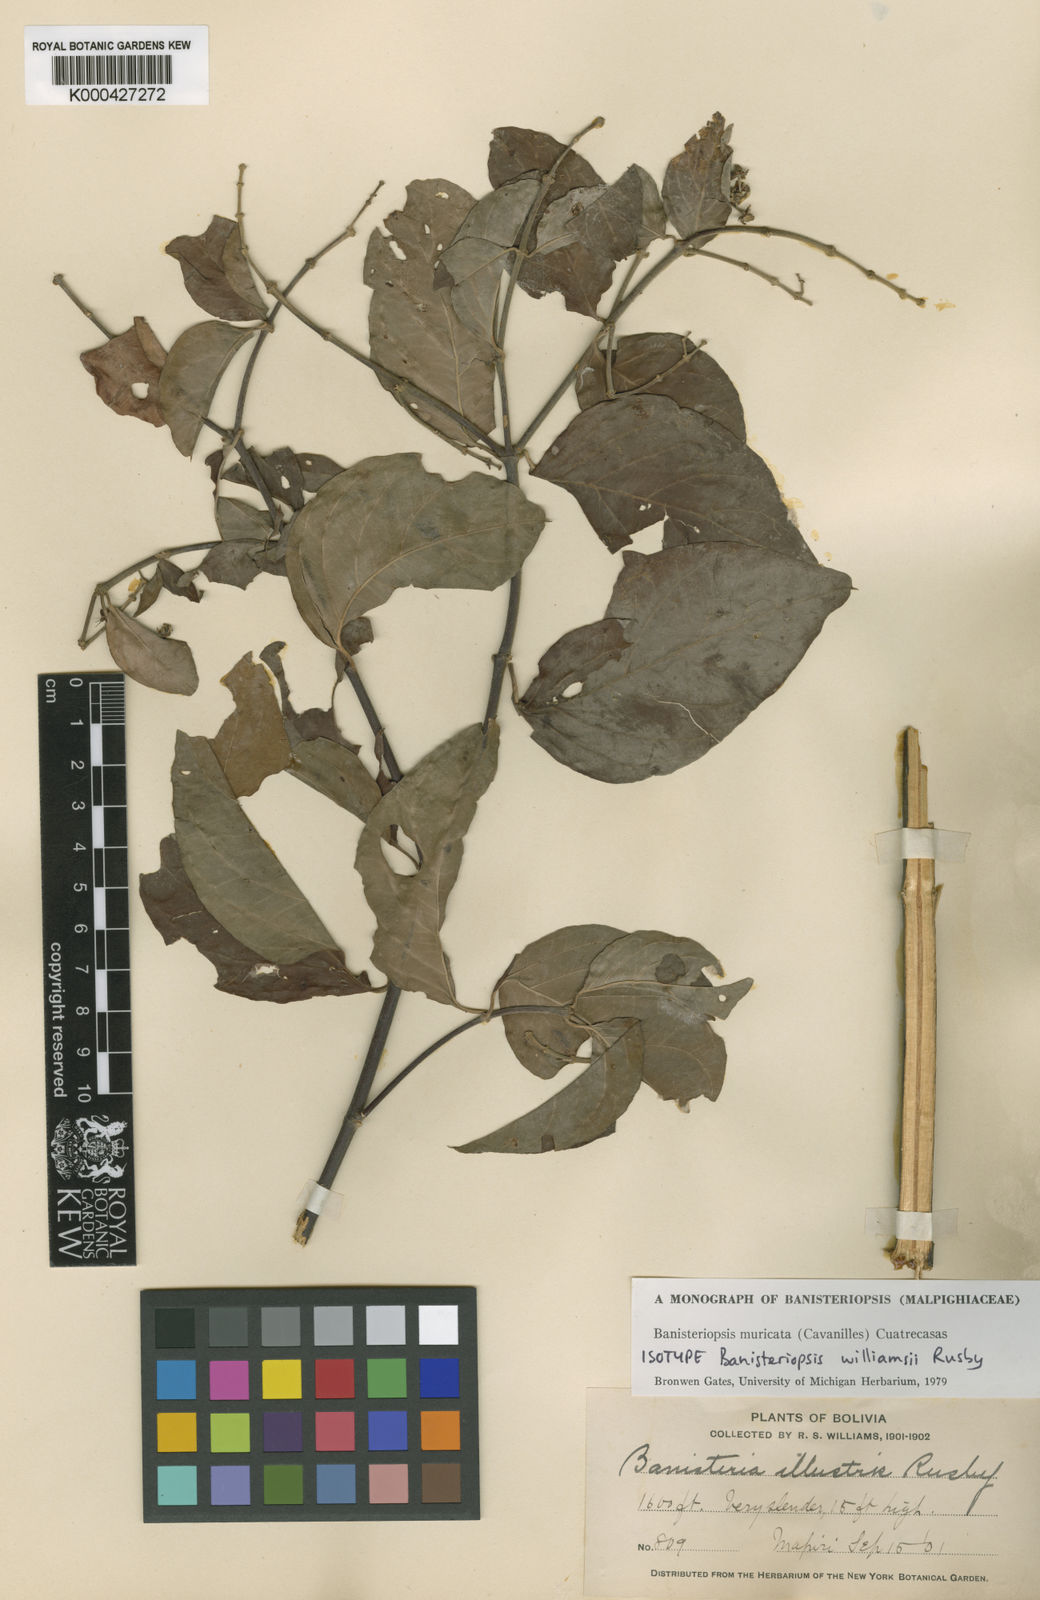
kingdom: Plantae
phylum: Tracheophyta
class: Magnoliopsida
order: Malpighiales
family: Malpighiaceae
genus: Banisteriopsis
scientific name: Banisteriopsis muricata
